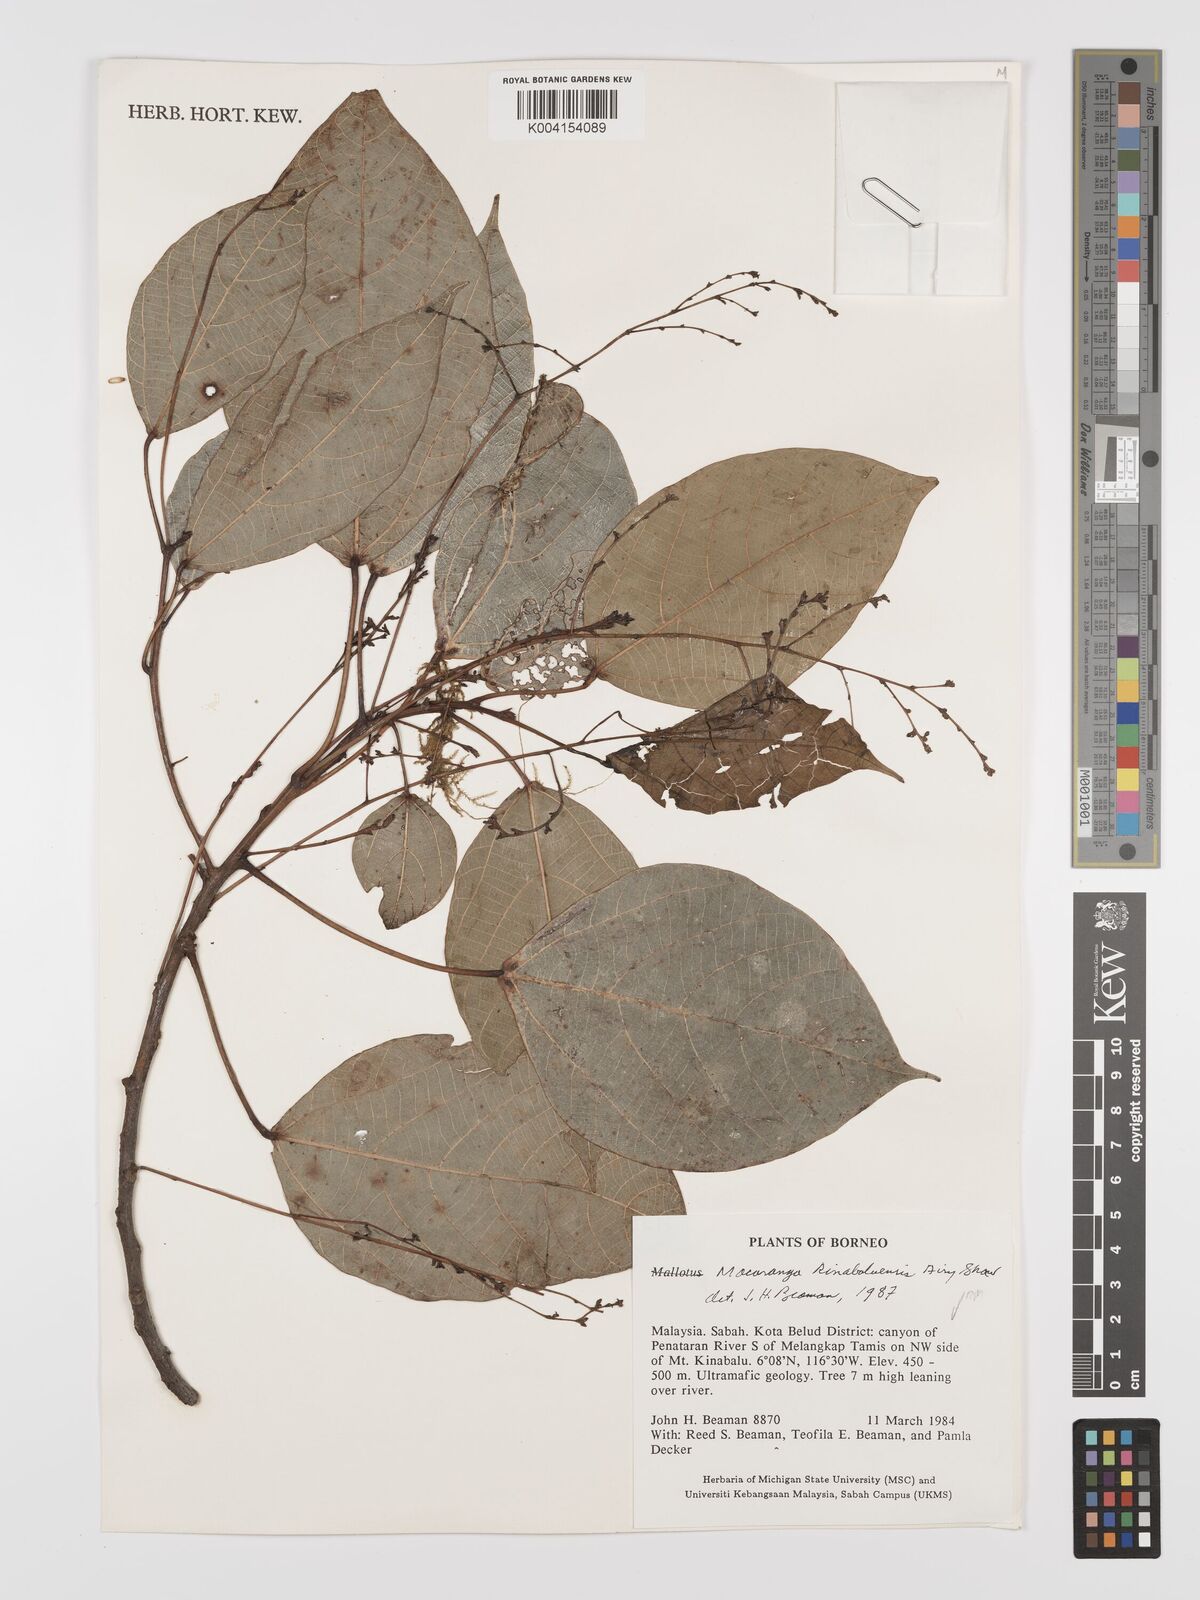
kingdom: Plantae
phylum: Tracheophyta
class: Magnoliopsida
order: Malpighiales
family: Euphorbiaceae
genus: Macaranga
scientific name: Macaranga kinabaluensis
